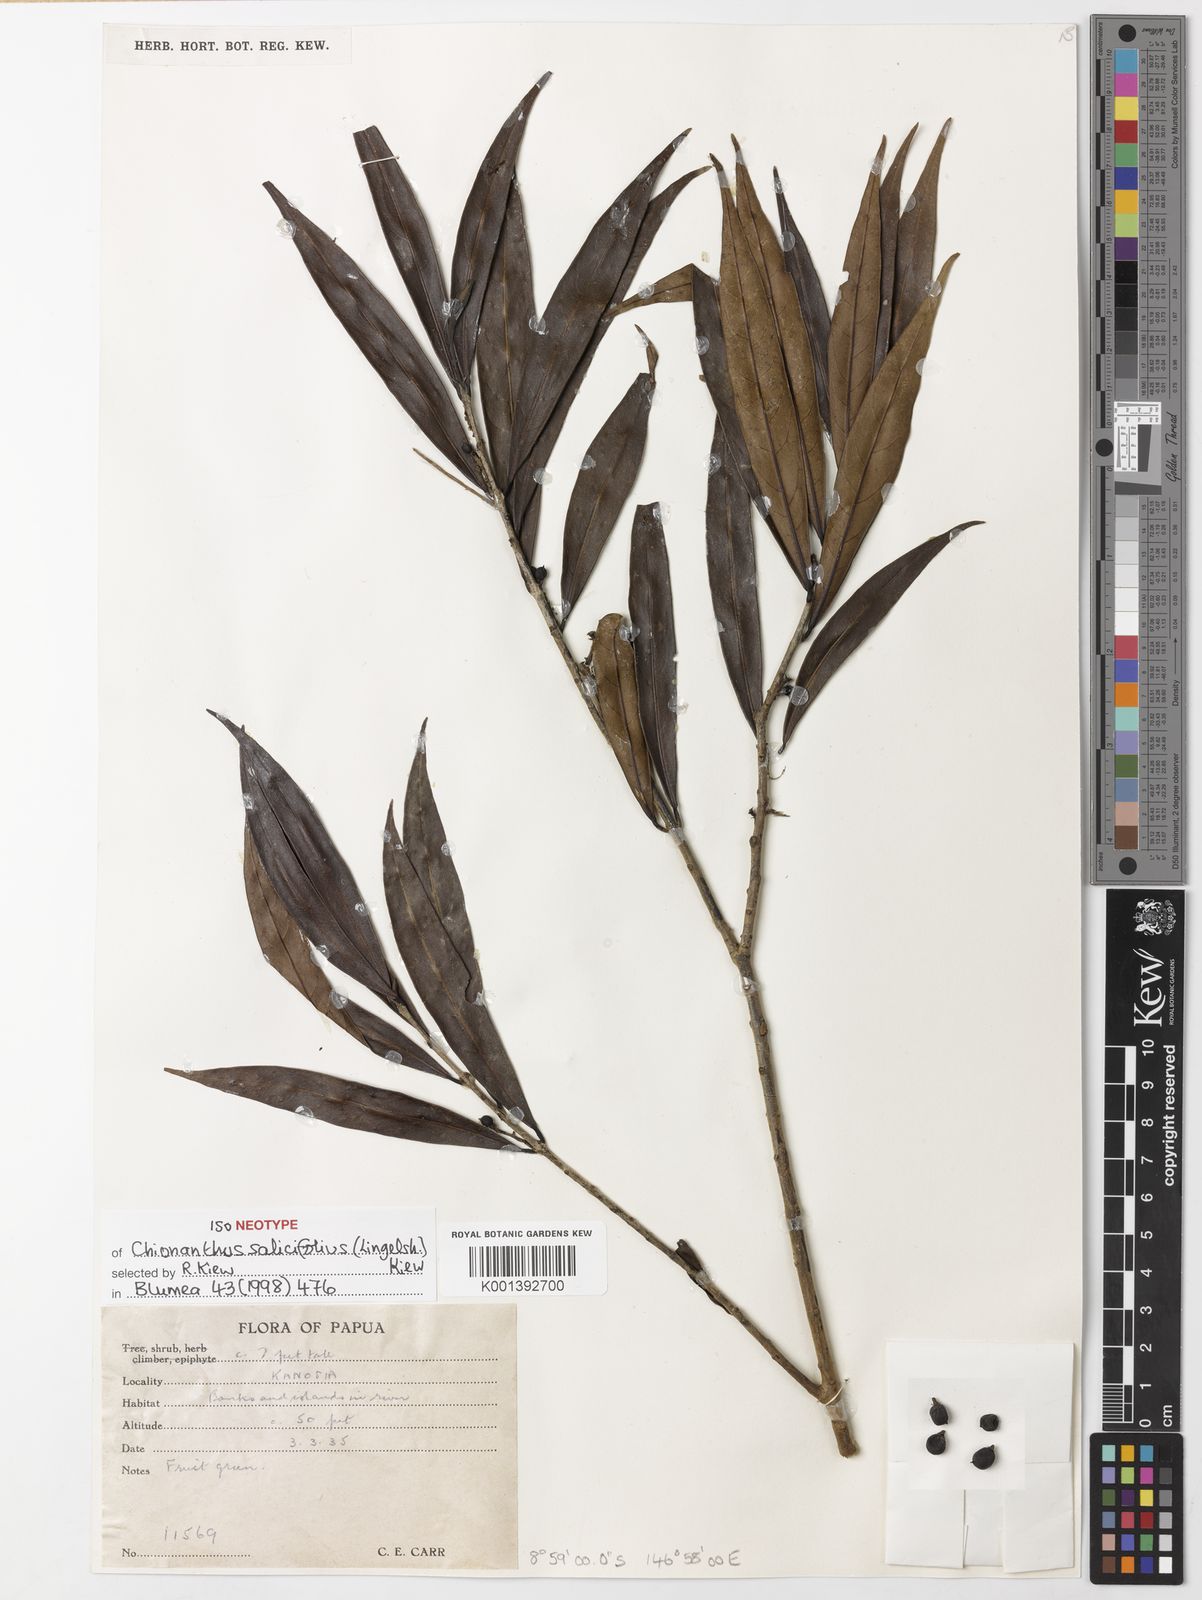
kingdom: Plantae
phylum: Tracheophyta
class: Magnoliopsida
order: Lamiales
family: Oleaceae
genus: Chionanthus
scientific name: Chionanthus salicifolius
